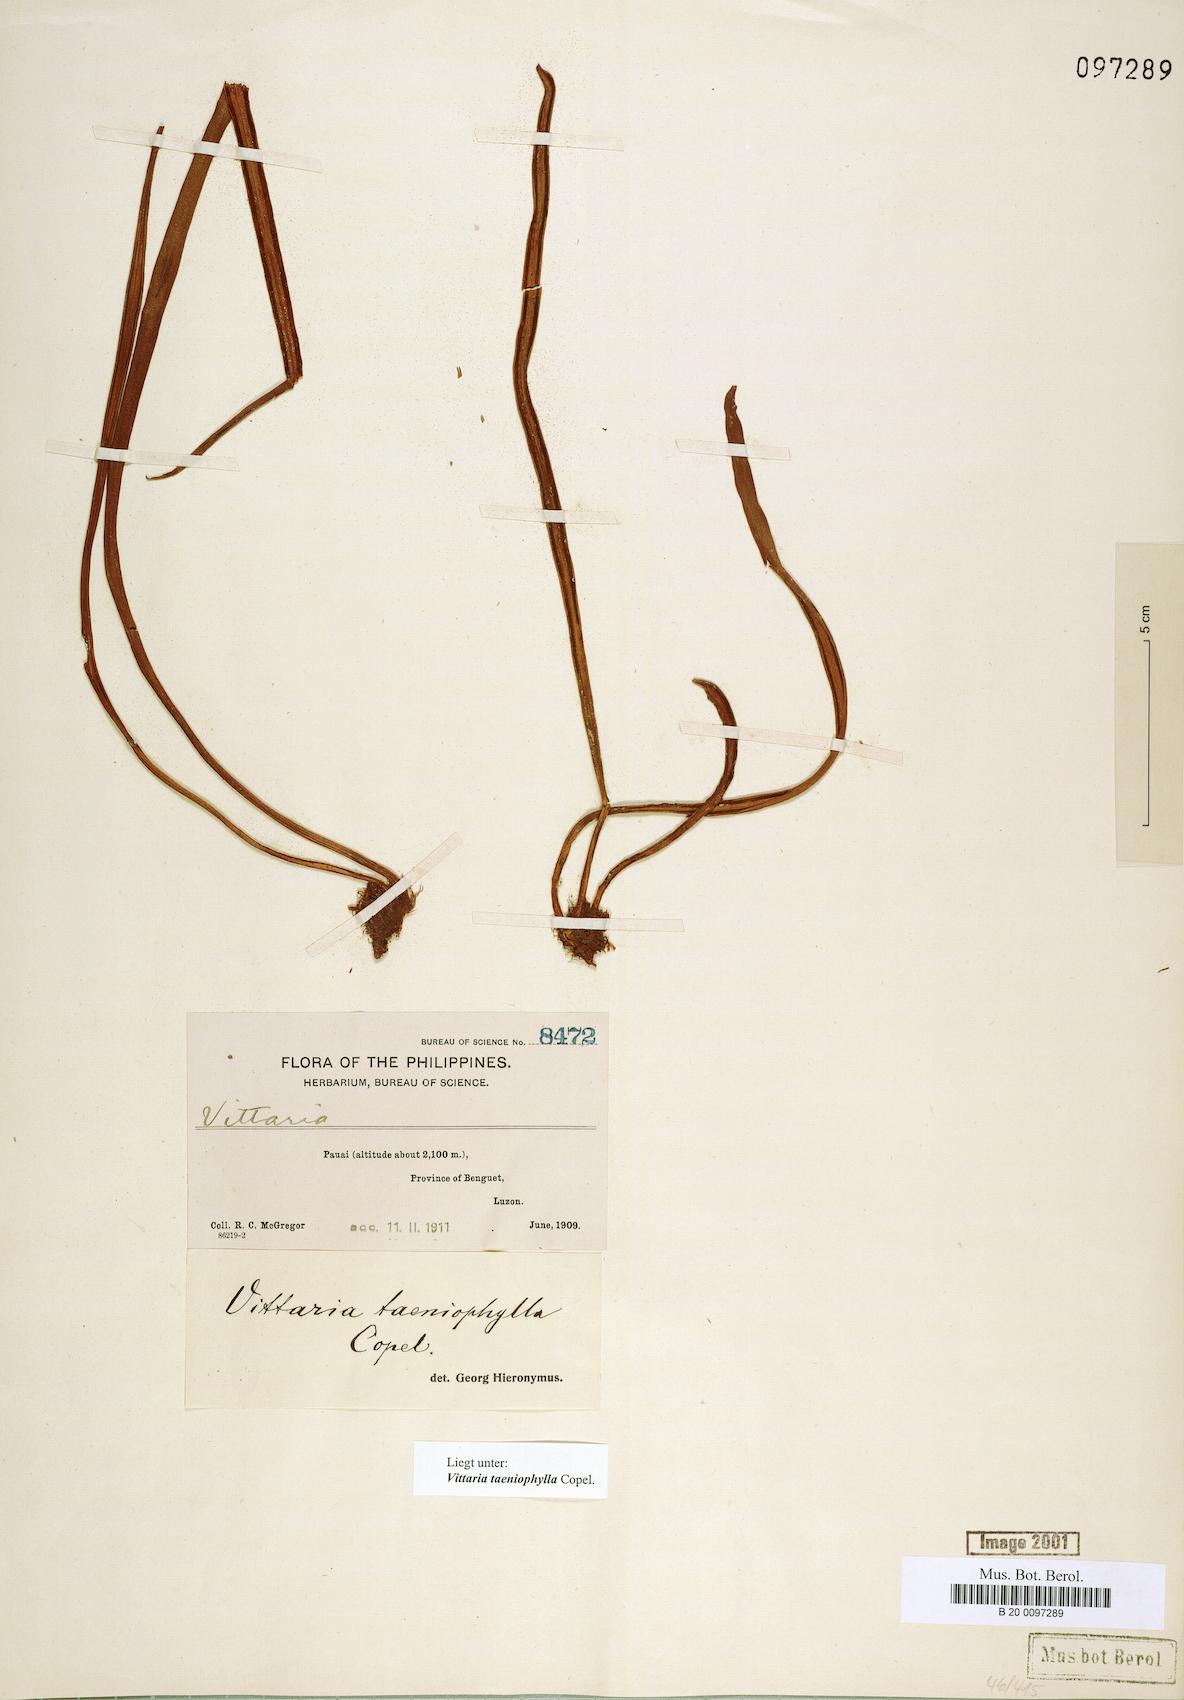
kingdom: Plantae
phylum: Tracheophyta
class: Polypodiopsida
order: Polypodiales
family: Pteridaceae
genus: Haplopteris
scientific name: Haplopteris taeniophylla
